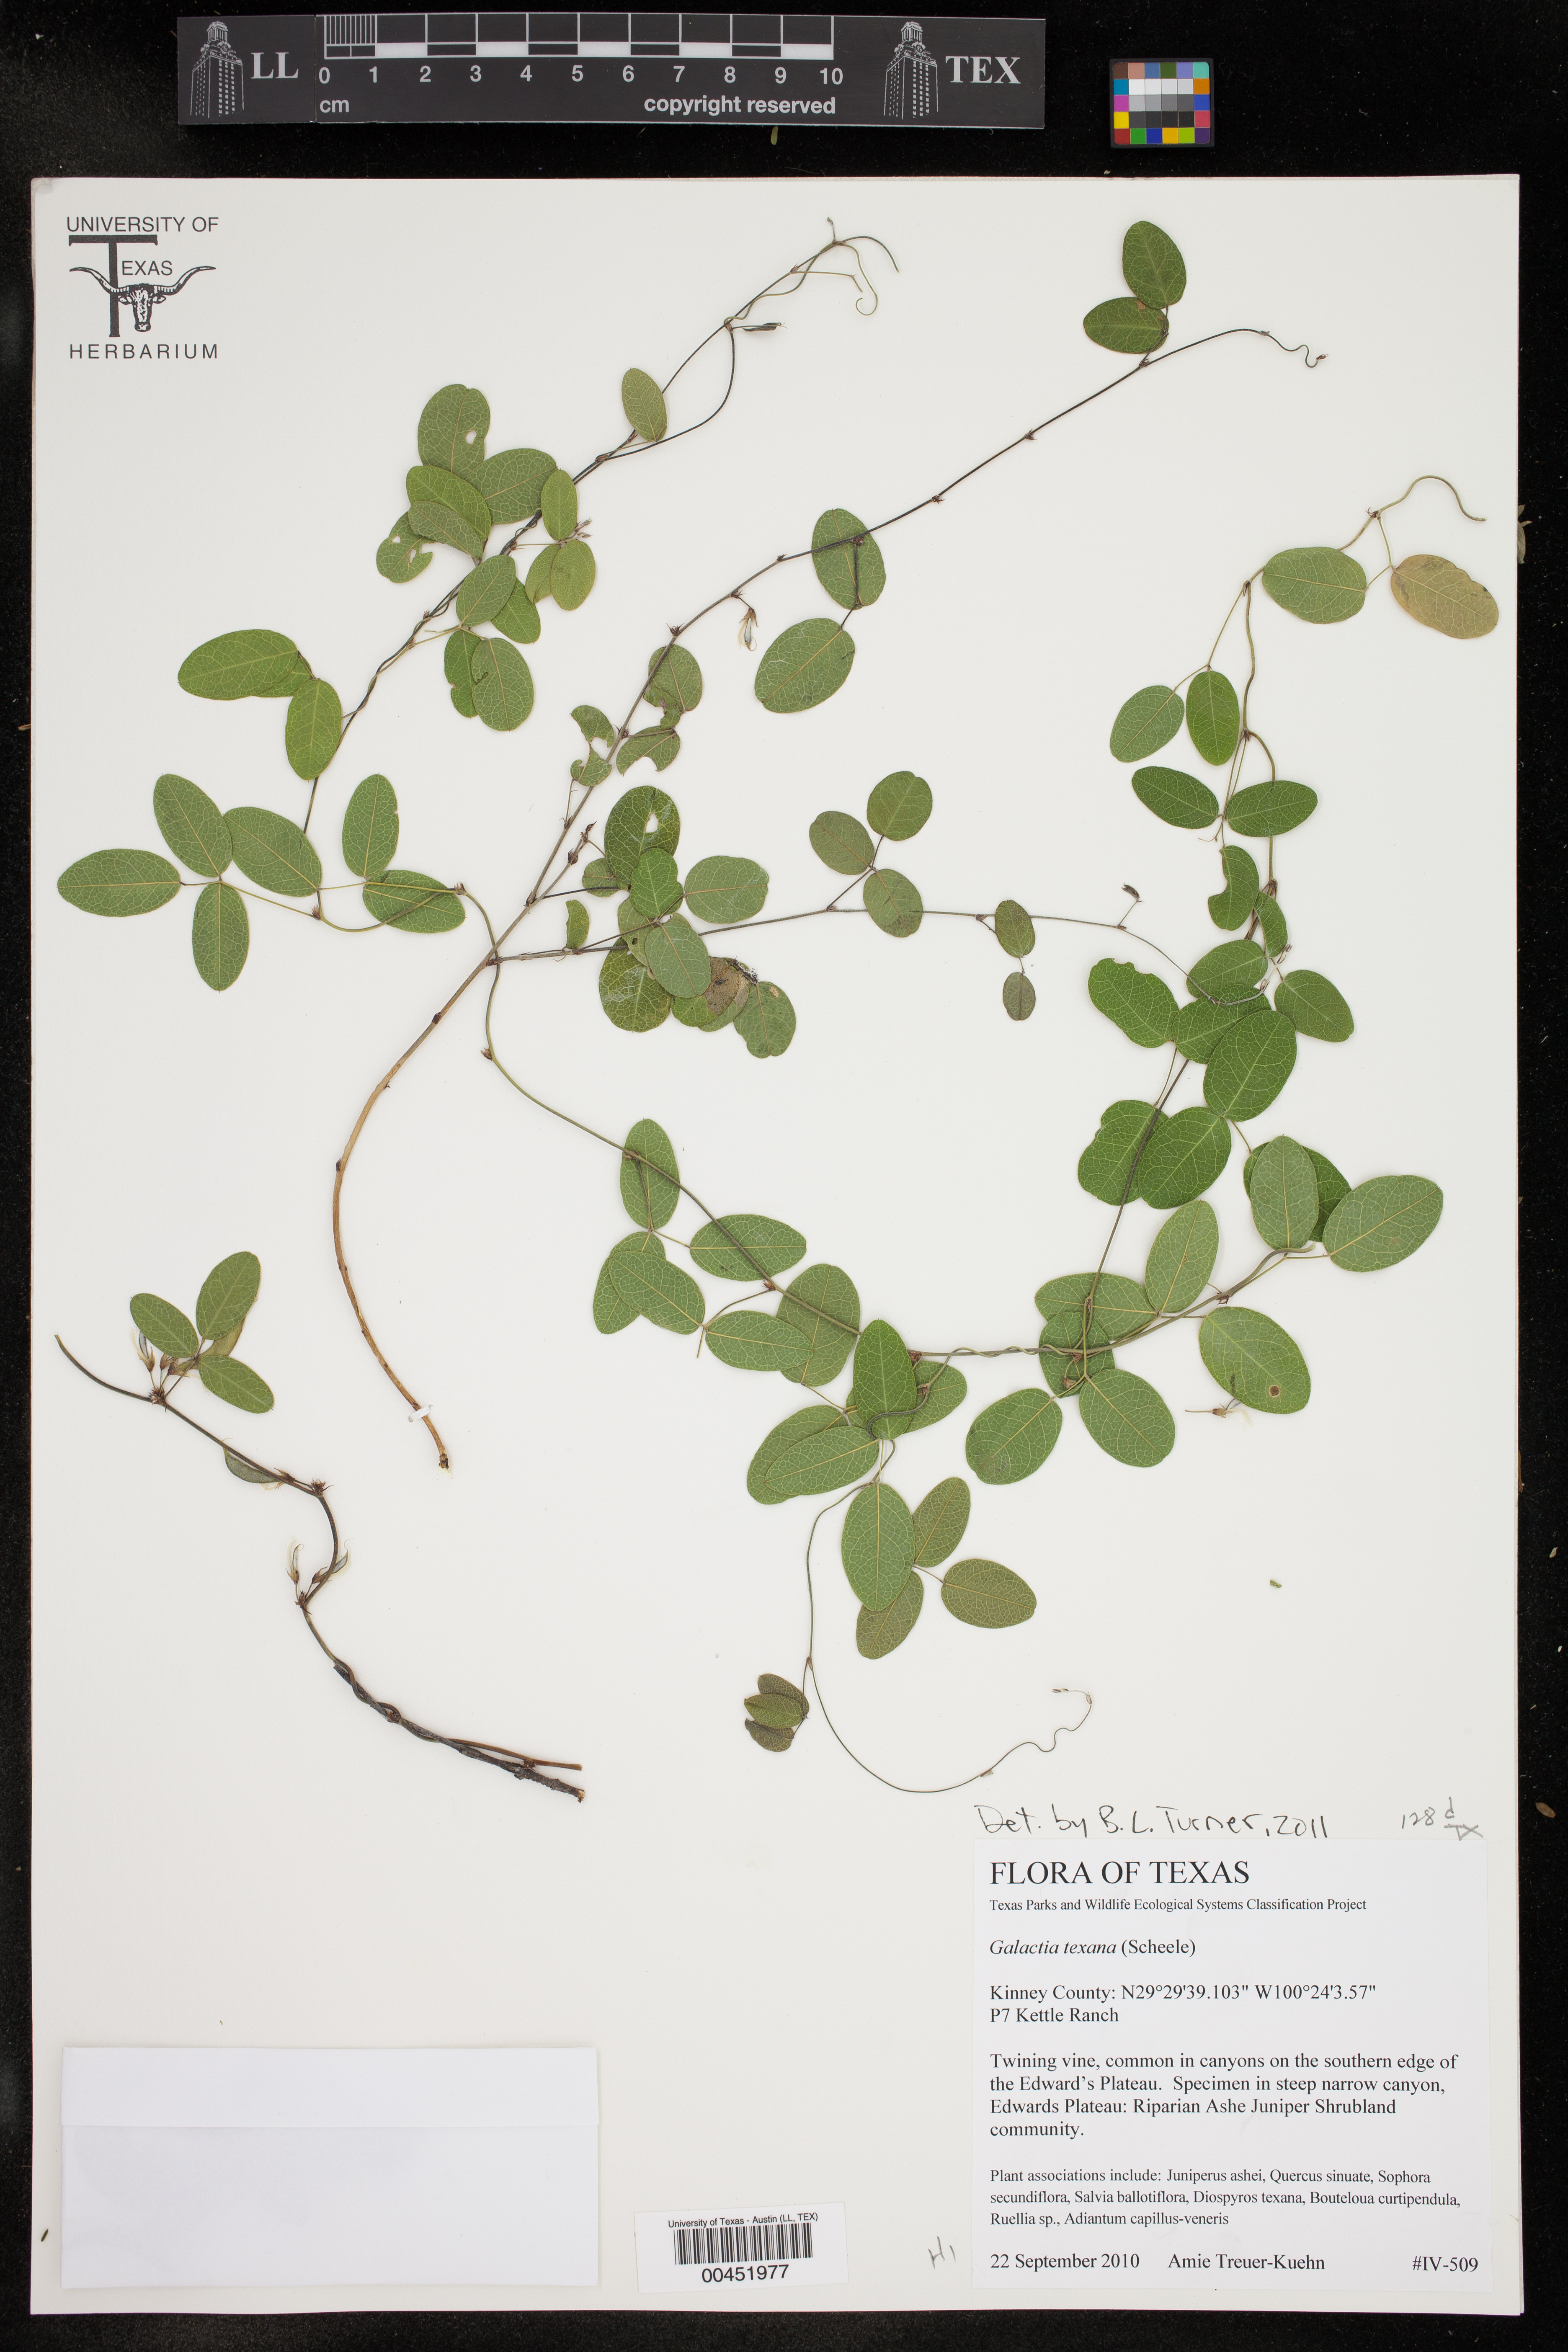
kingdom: Plantae
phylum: Tracheophyta
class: Magnoliopsida
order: Fabales
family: Fabaceae
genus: Galactia
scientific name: Galactia texana
